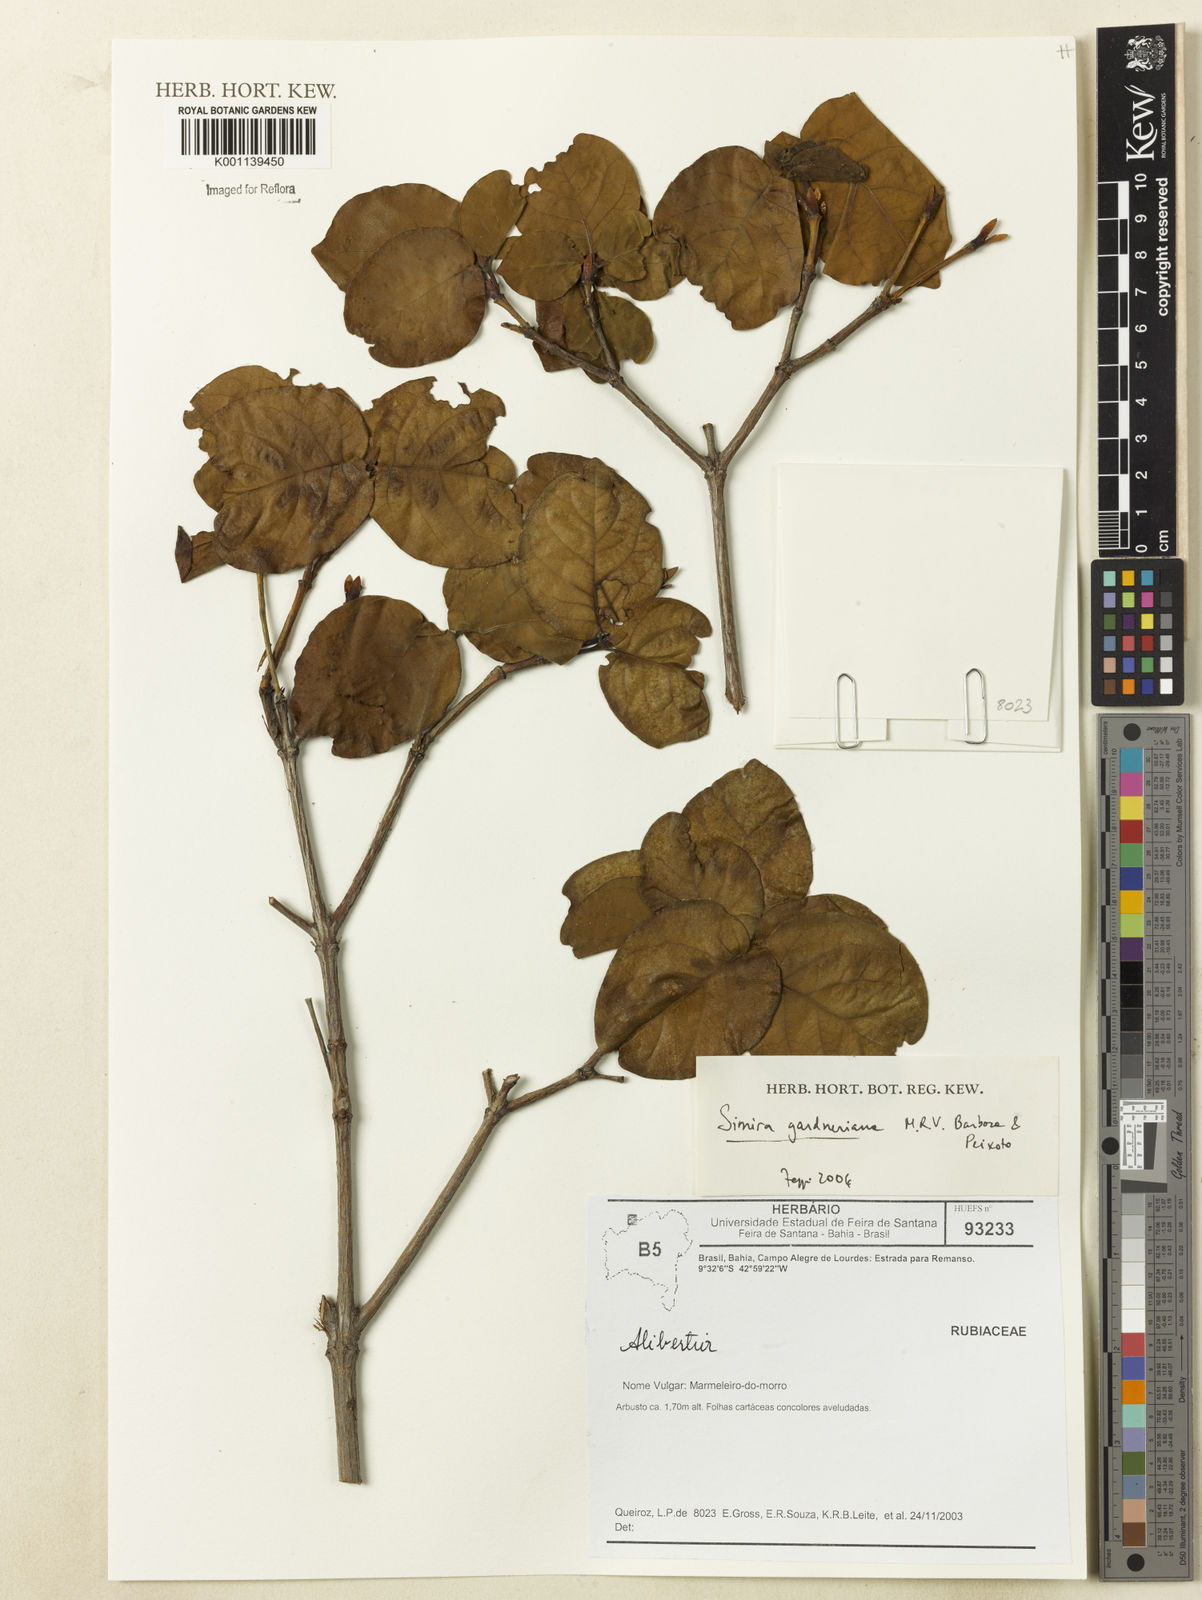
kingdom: Plantae
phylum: Tracheophyta
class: Magnoliopsida
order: Gentianales
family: Rubiaceae
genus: Simira
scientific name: Simira gardneriana
